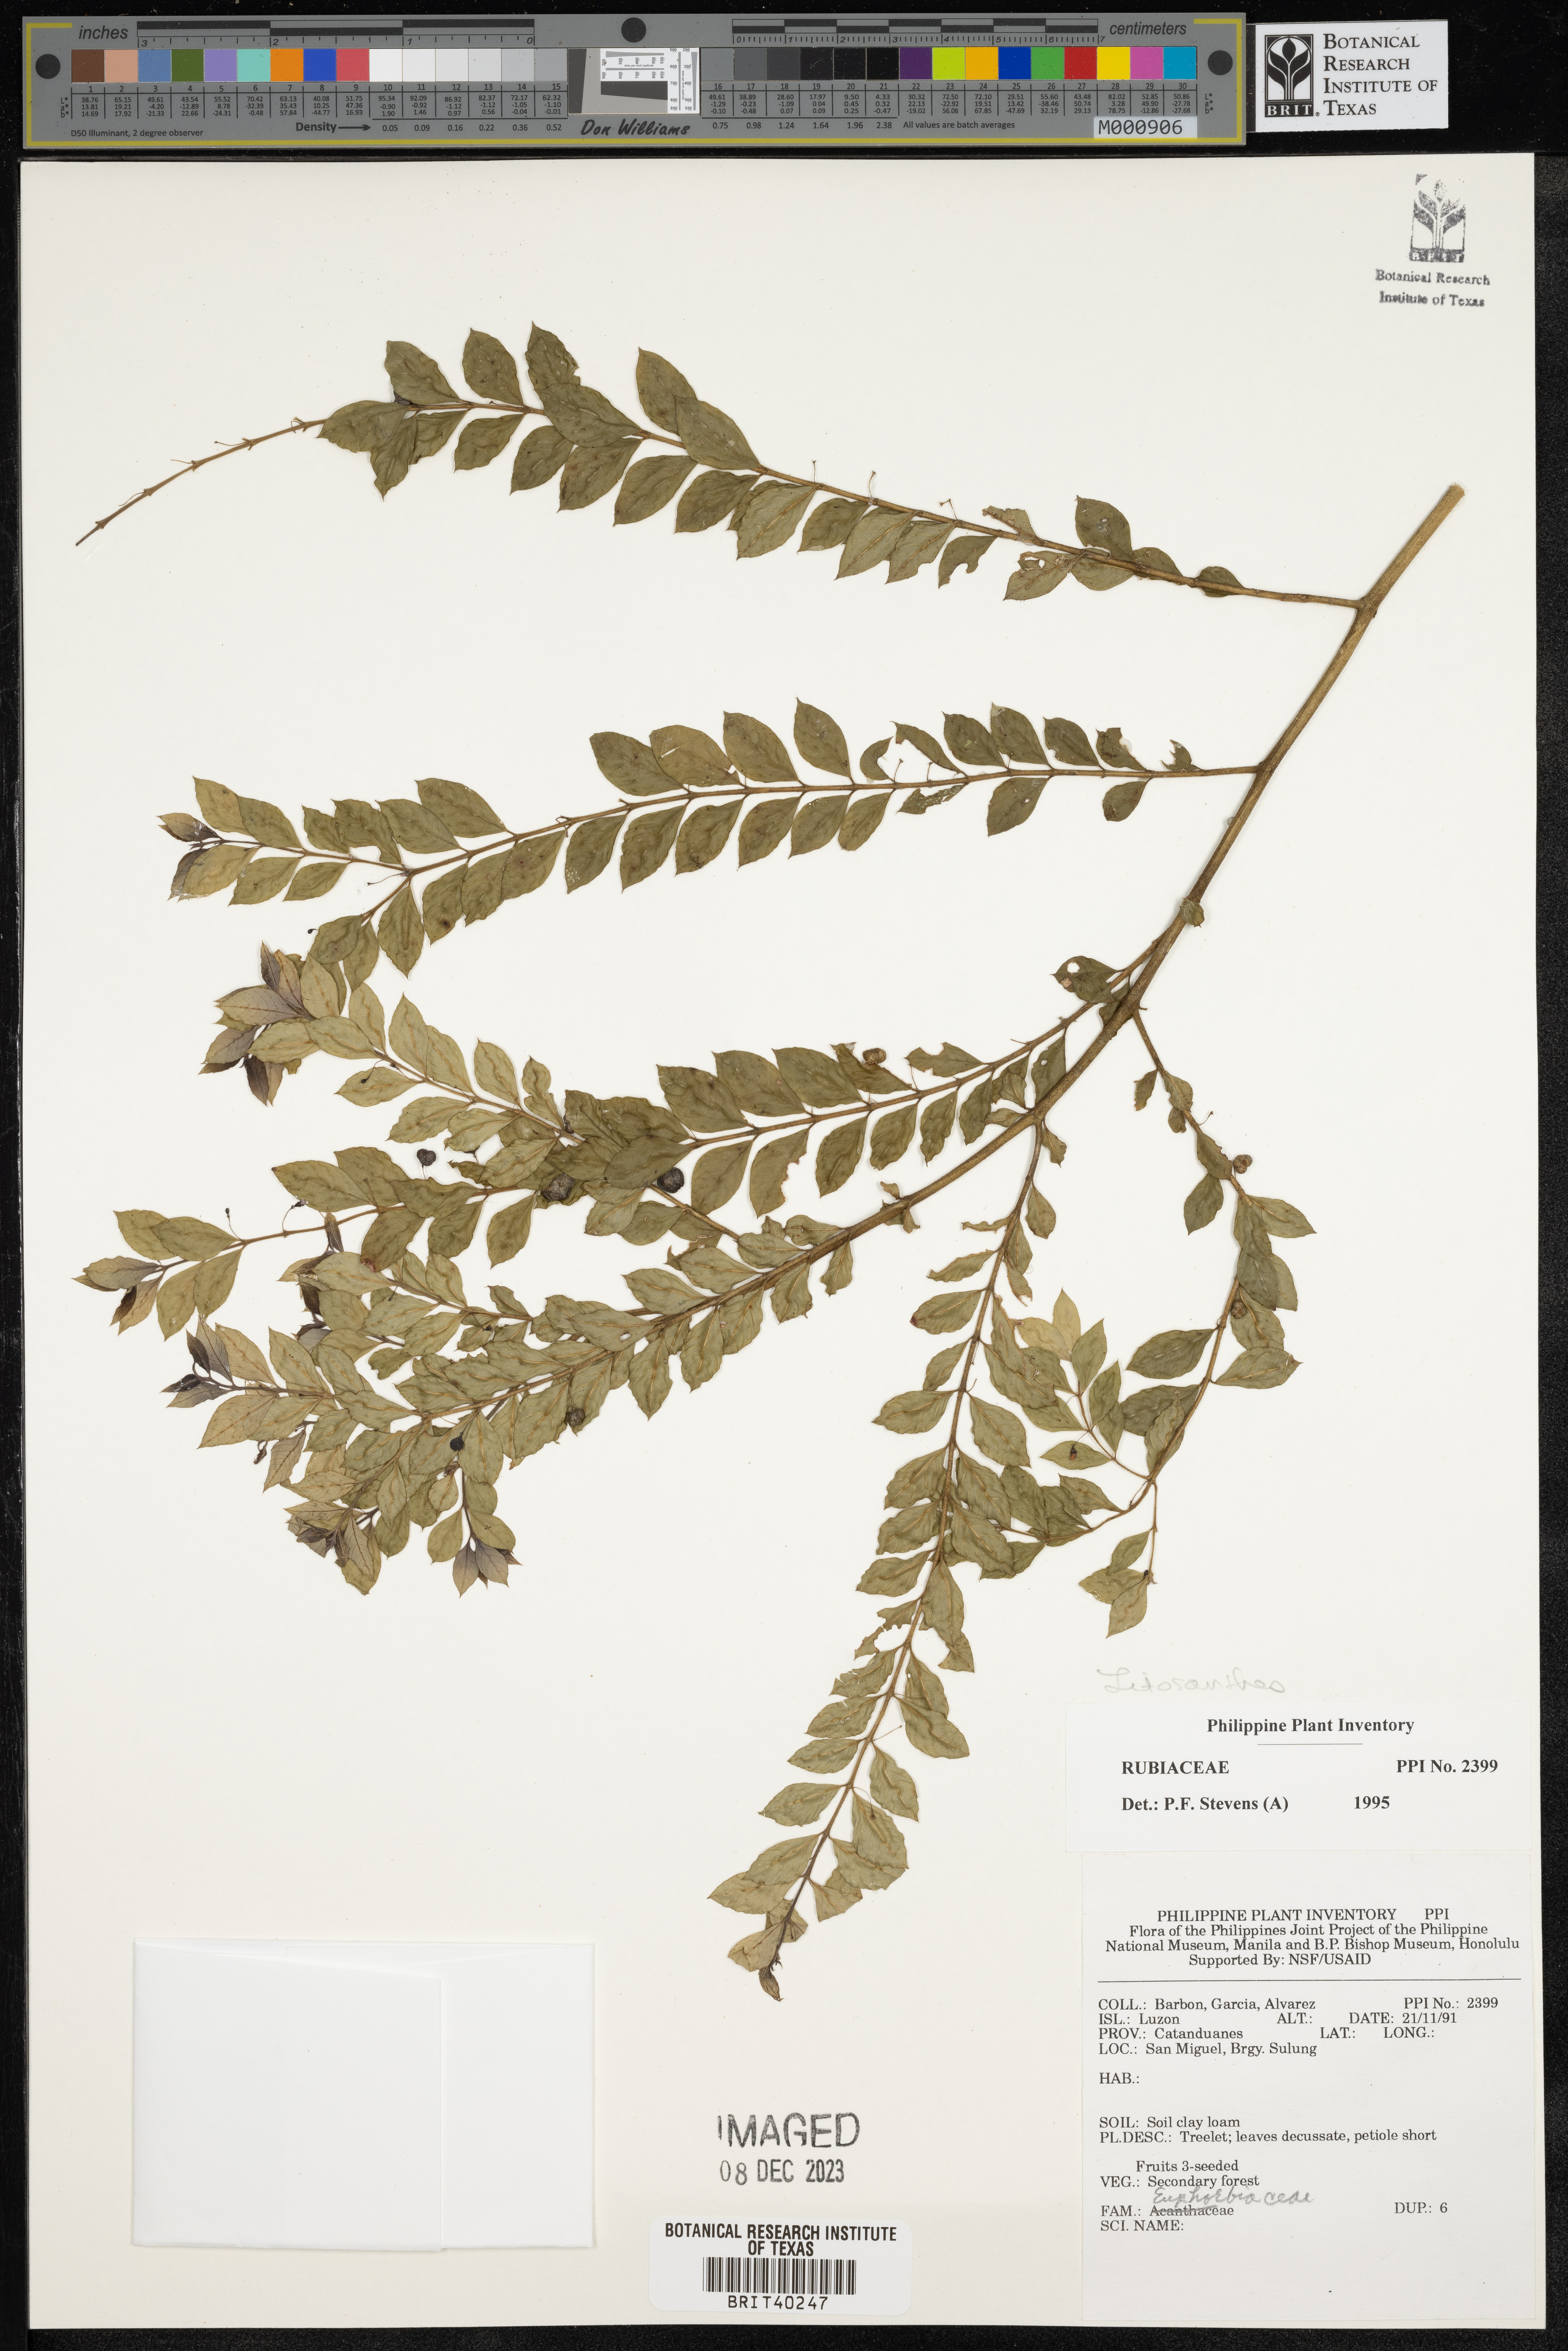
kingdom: Plantae
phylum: Tracheophyta
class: Magnoliopsida
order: Gentianales
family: Rubiaceae
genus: Lasianthus
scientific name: Lasianthus
